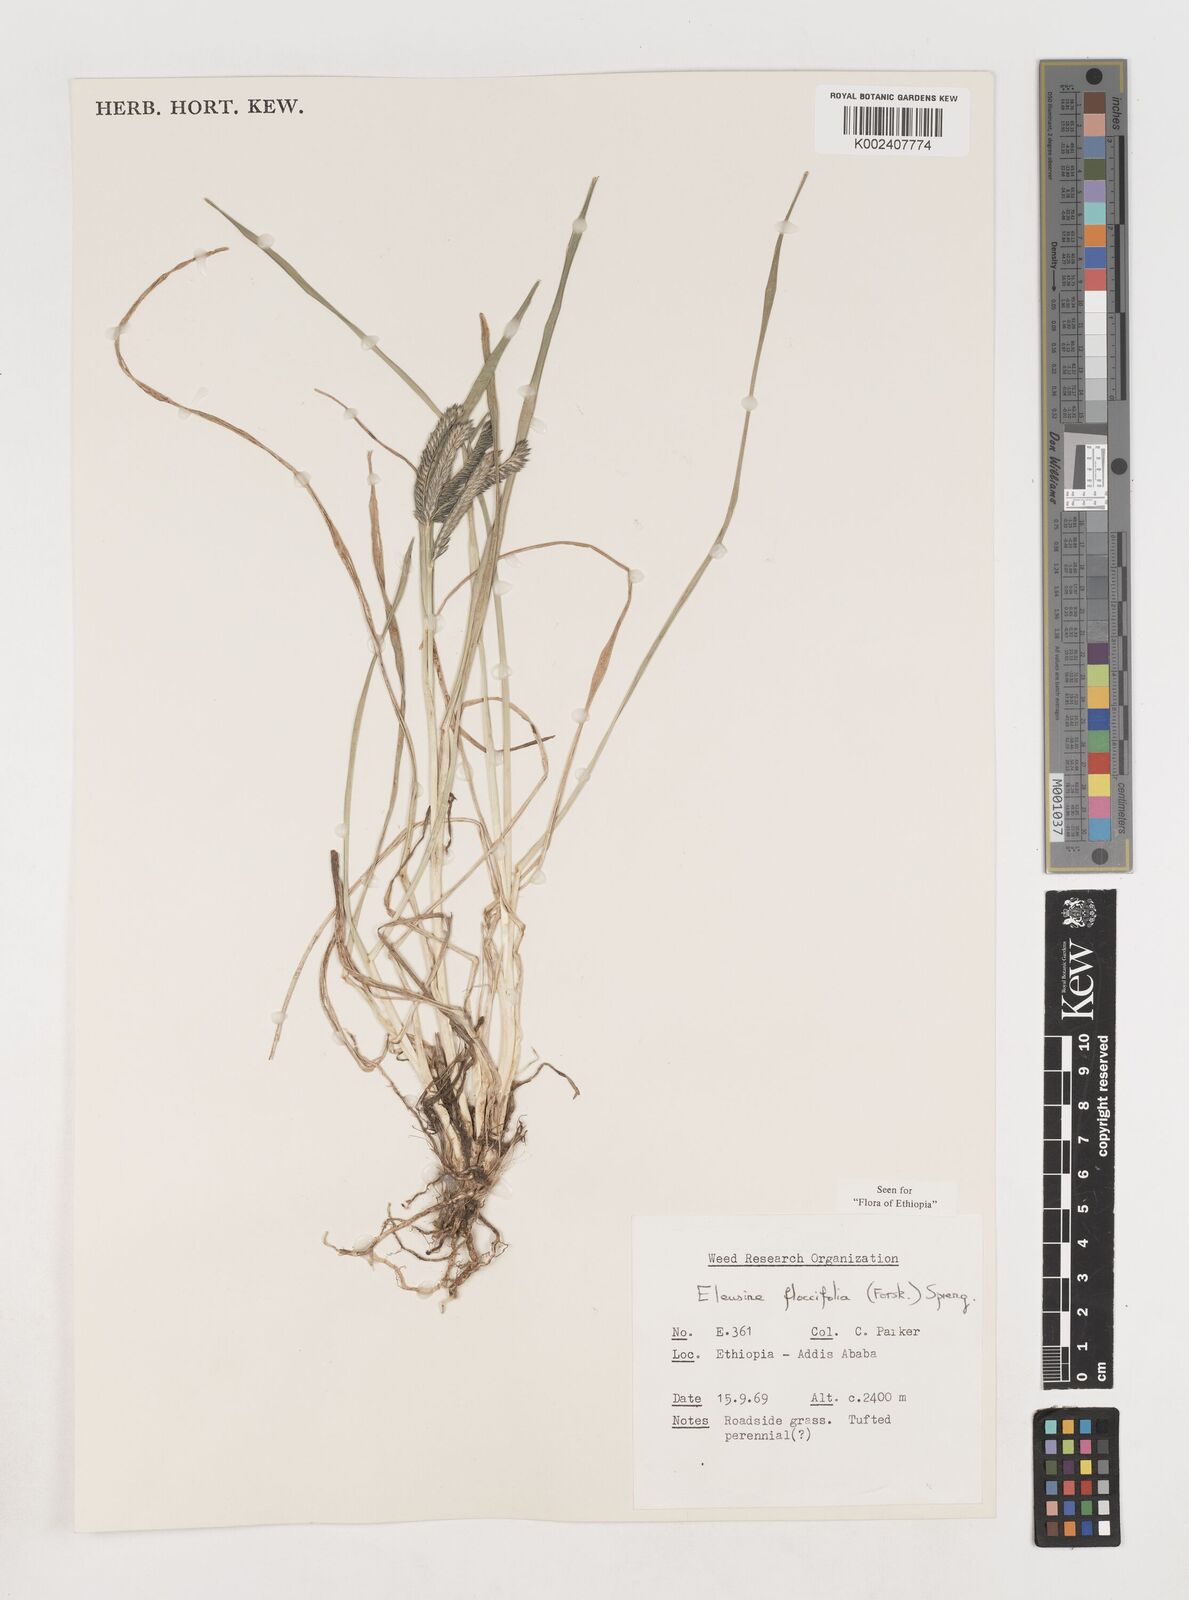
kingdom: Plantae
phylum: Tracheophyta
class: Liliopsida
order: Poales
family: Poaceae
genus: Eleusine
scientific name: Eleusine floccifolia
